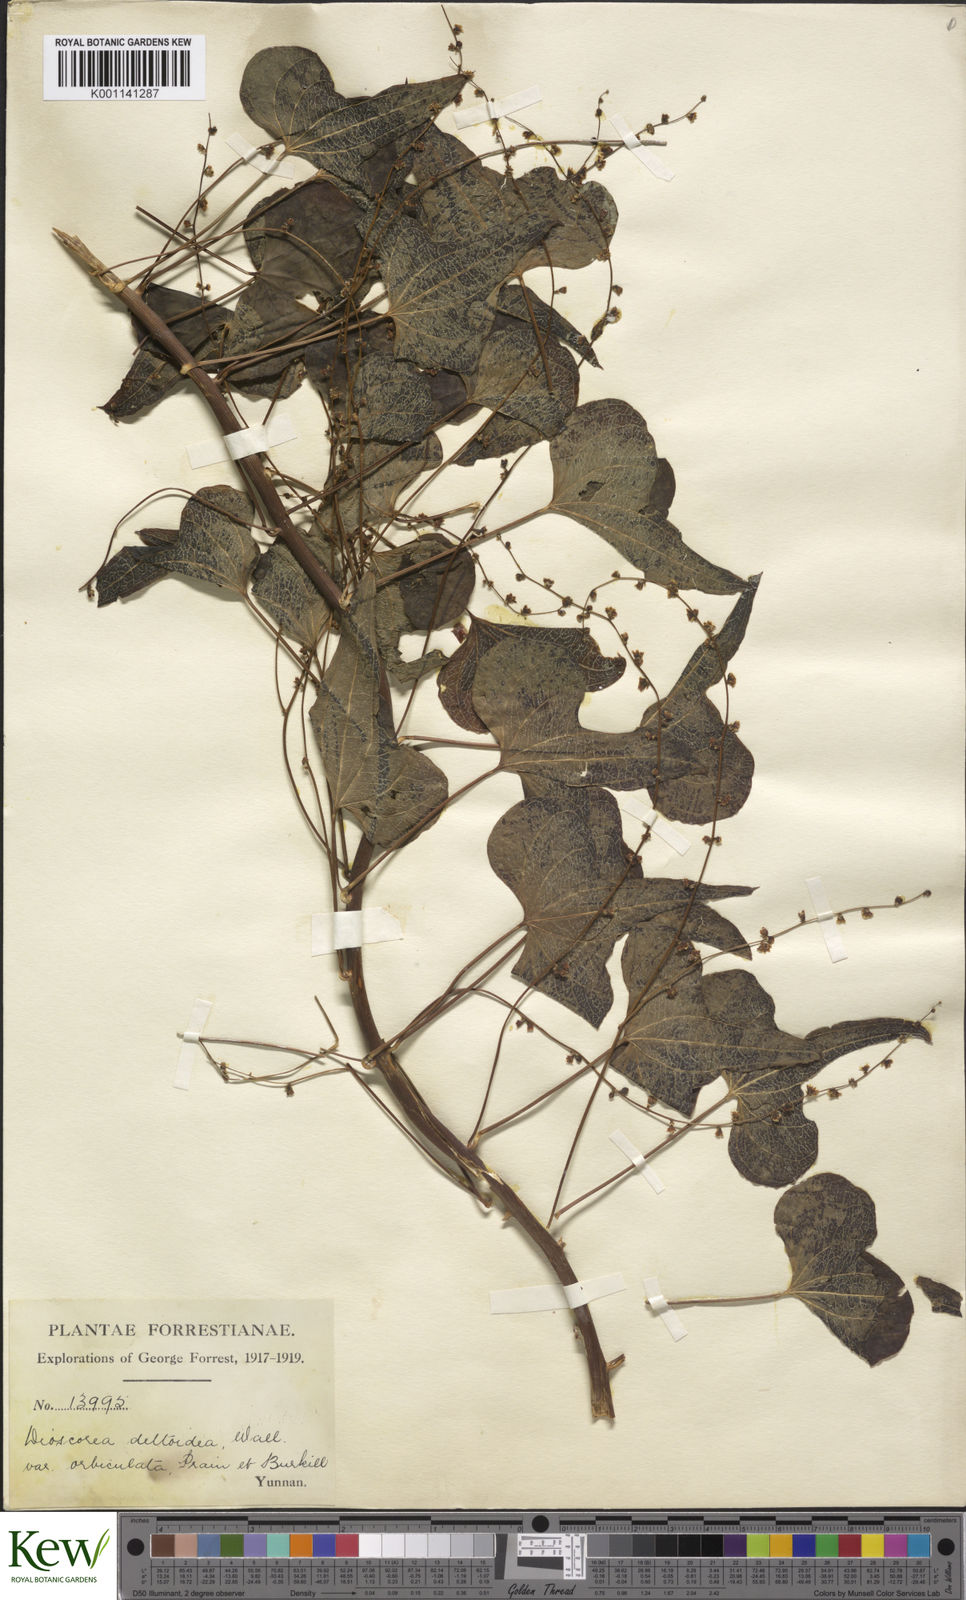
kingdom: Plantae
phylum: Tracheophyta
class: Liliopsida
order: Dioscoreales
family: Dioscoreaceae
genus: Dioscorea
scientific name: Dioscorea deltoidea
